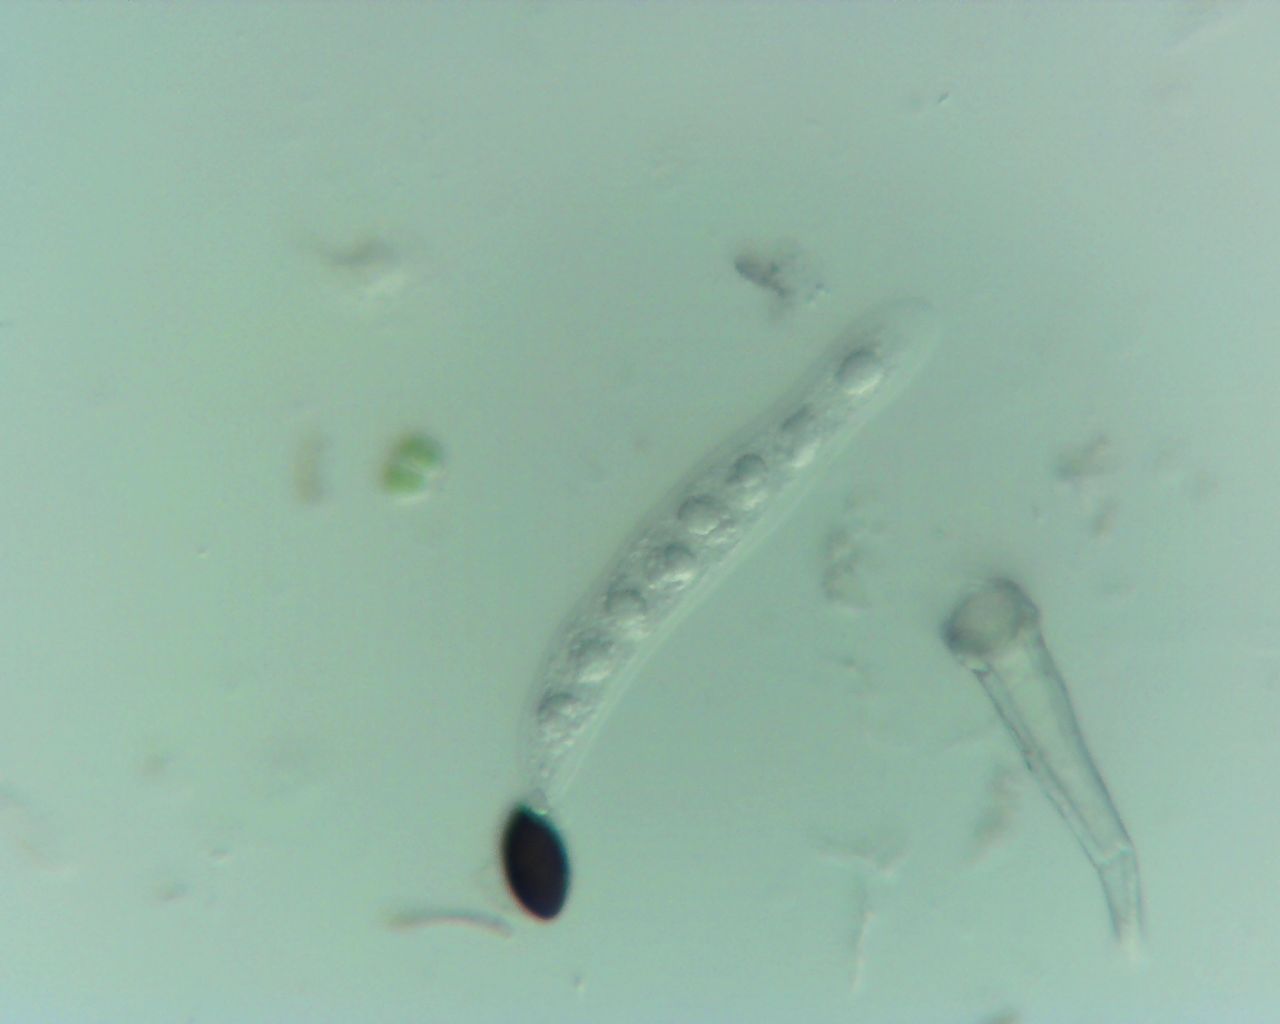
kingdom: Fungi
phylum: Ascomycota
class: Sordariomycetes
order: Xylariales
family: Xylariaceae
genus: Anthostomella
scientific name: Anthostomella
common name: skjoldkerne
